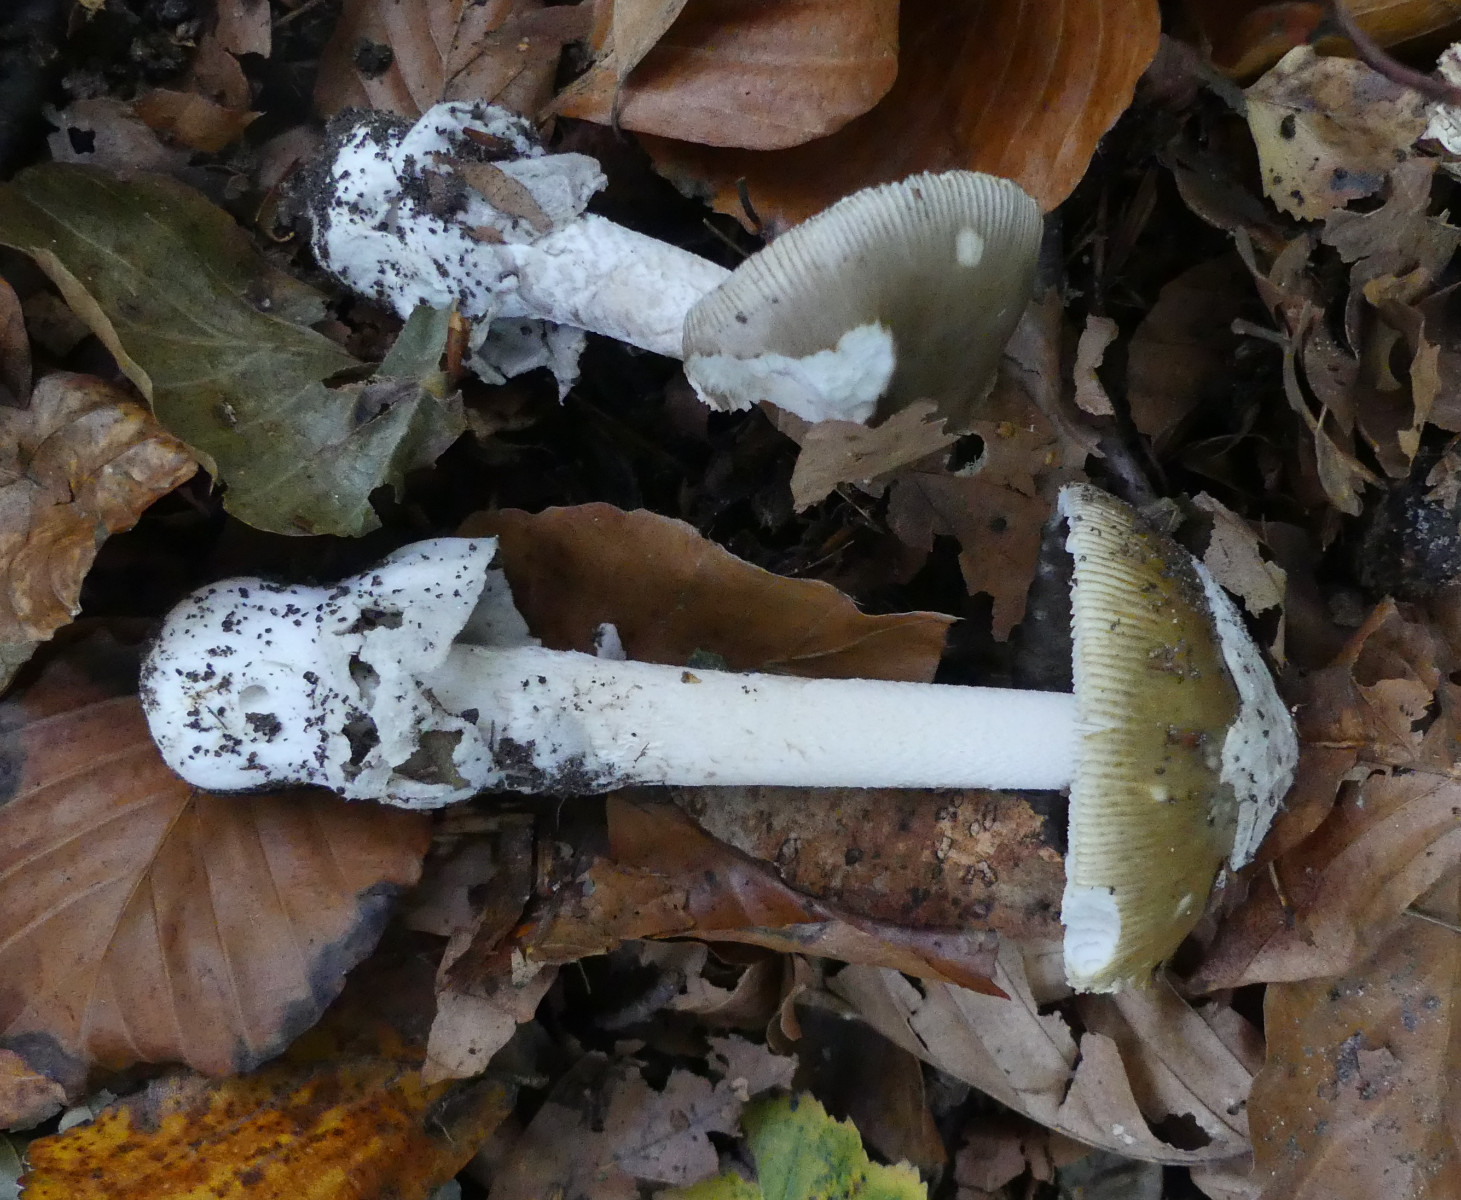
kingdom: Fungi
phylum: Basidiomycota
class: Agaricomycetes
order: Agaricales
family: Amanitaceae
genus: Amanita
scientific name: Amanita submembranacea
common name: gråspættet kam-fluesvamp
